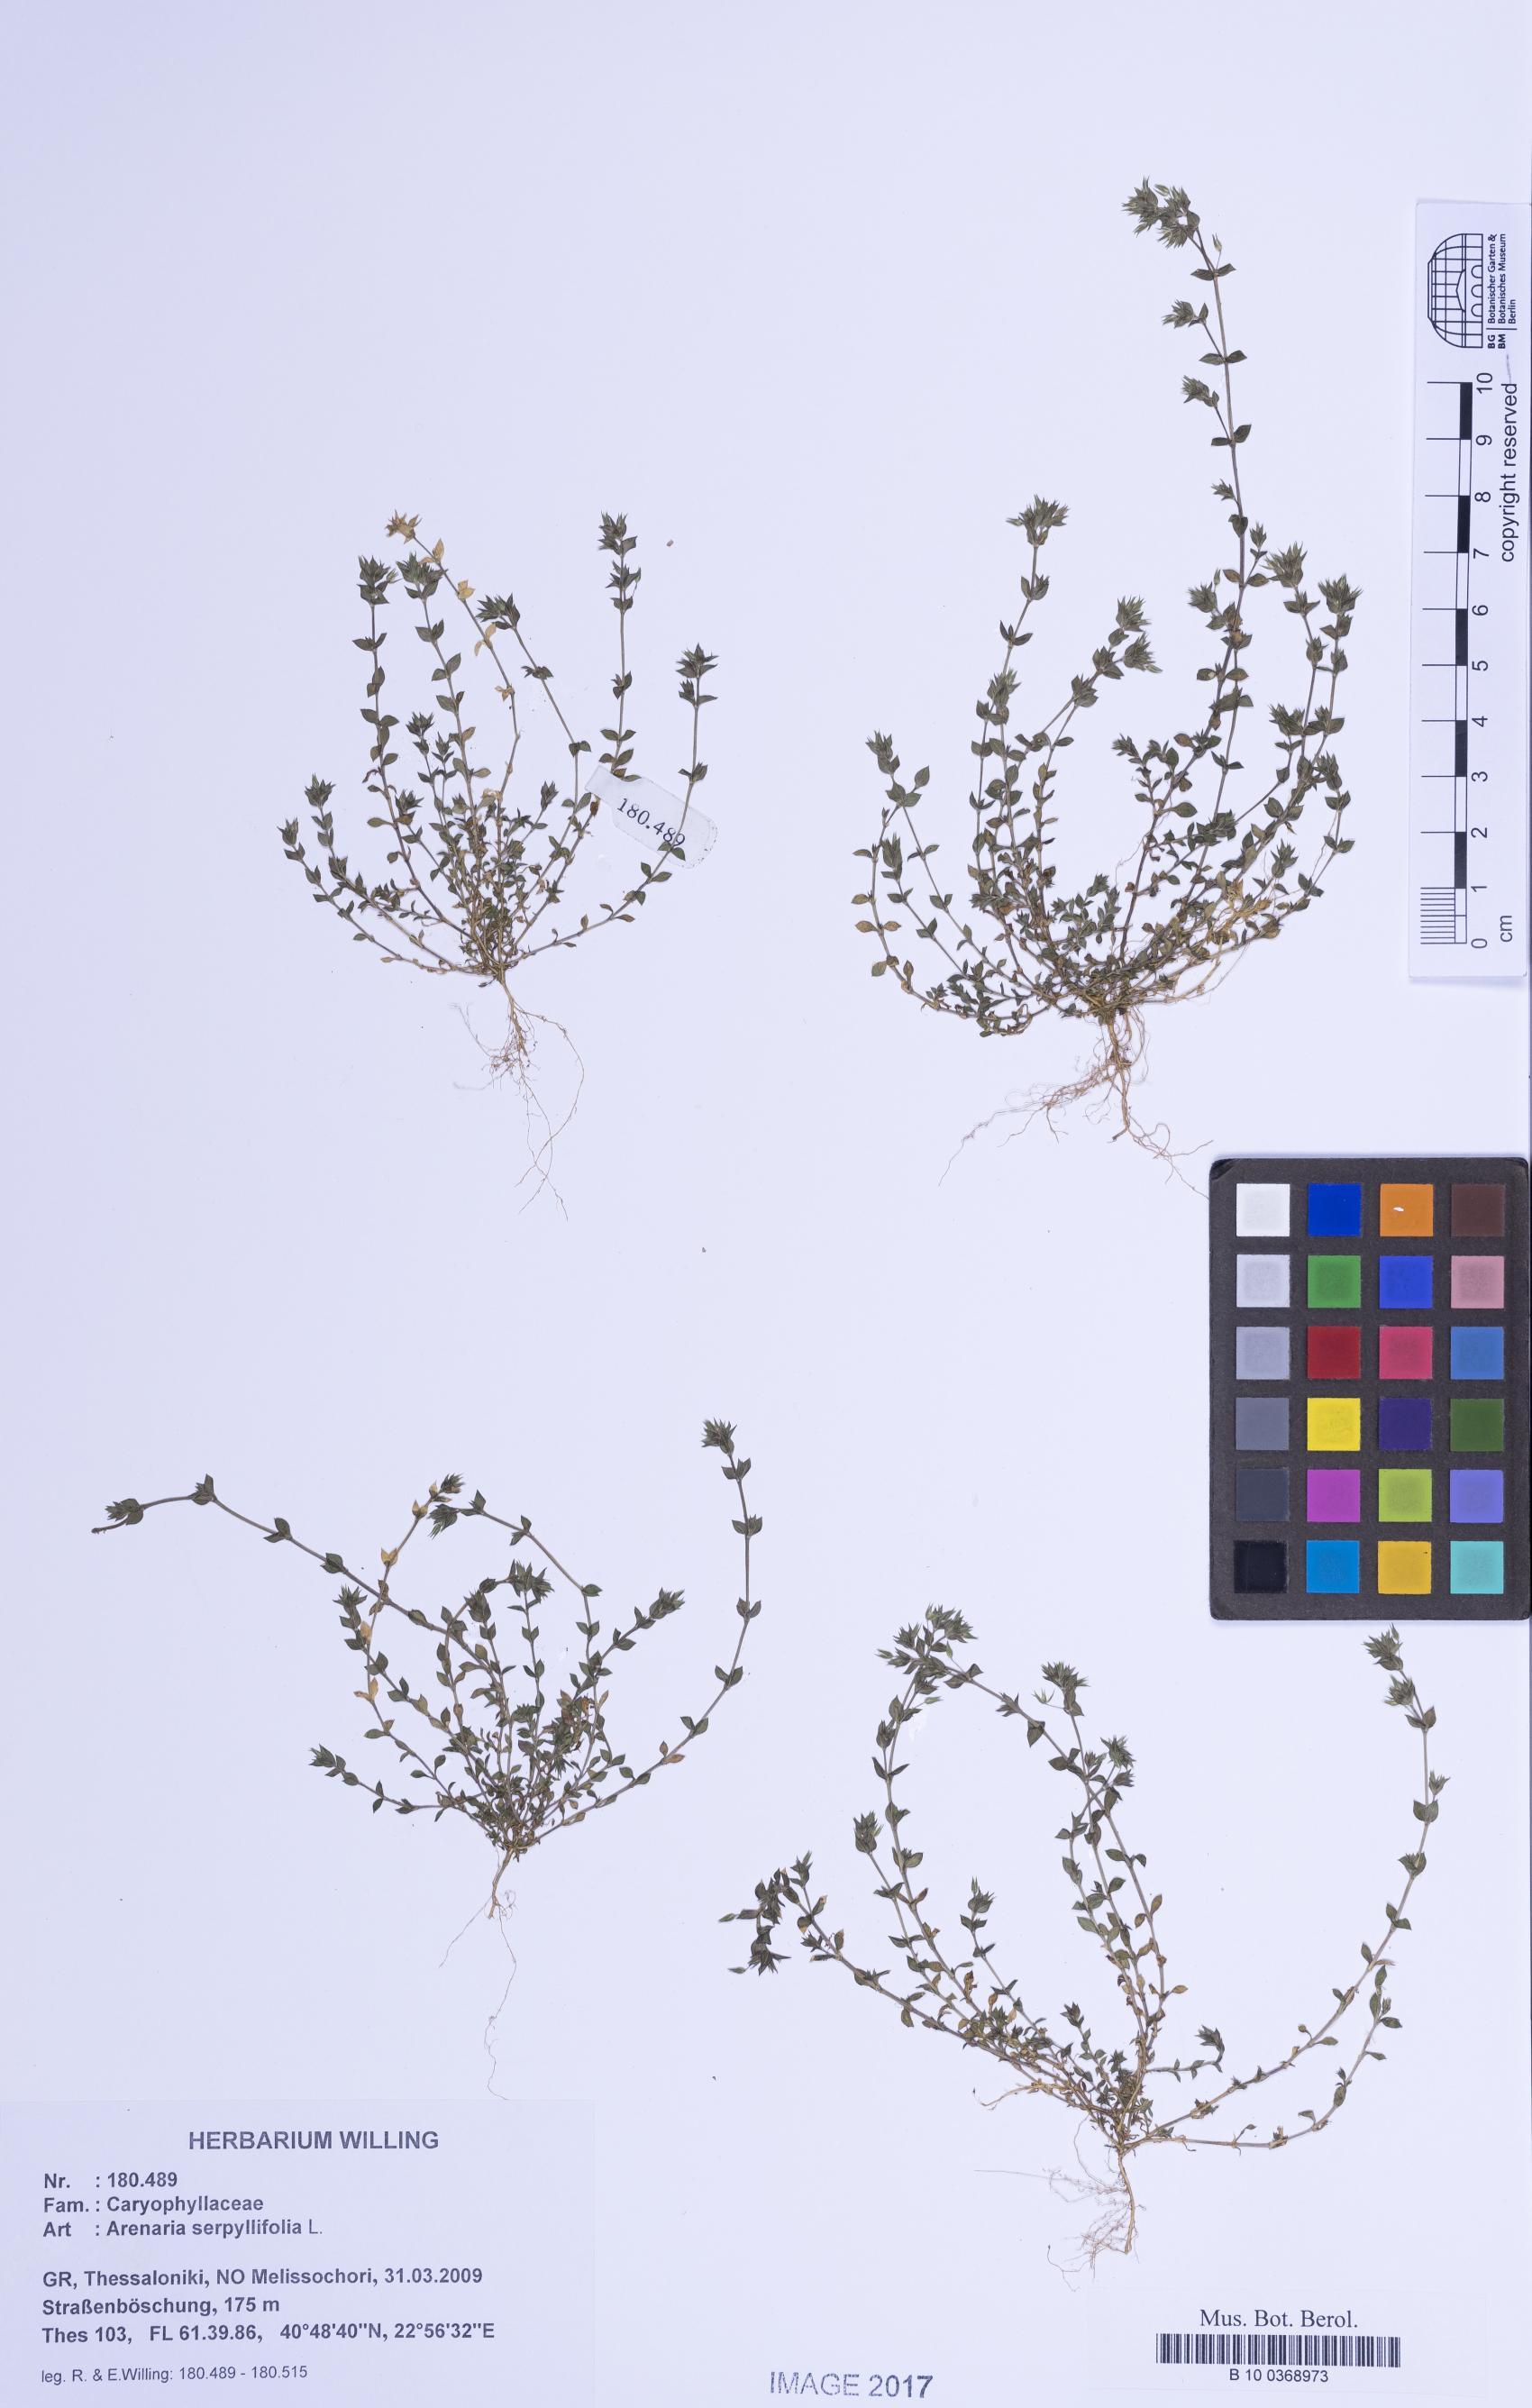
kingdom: Plantae
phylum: Tracheophyta
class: Magnoliopsida
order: Caryophyllales
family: Caryophyllaceae
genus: Arenaria
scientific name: Arenaria serpyllifolia
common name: Thyme-leaved sandwort
